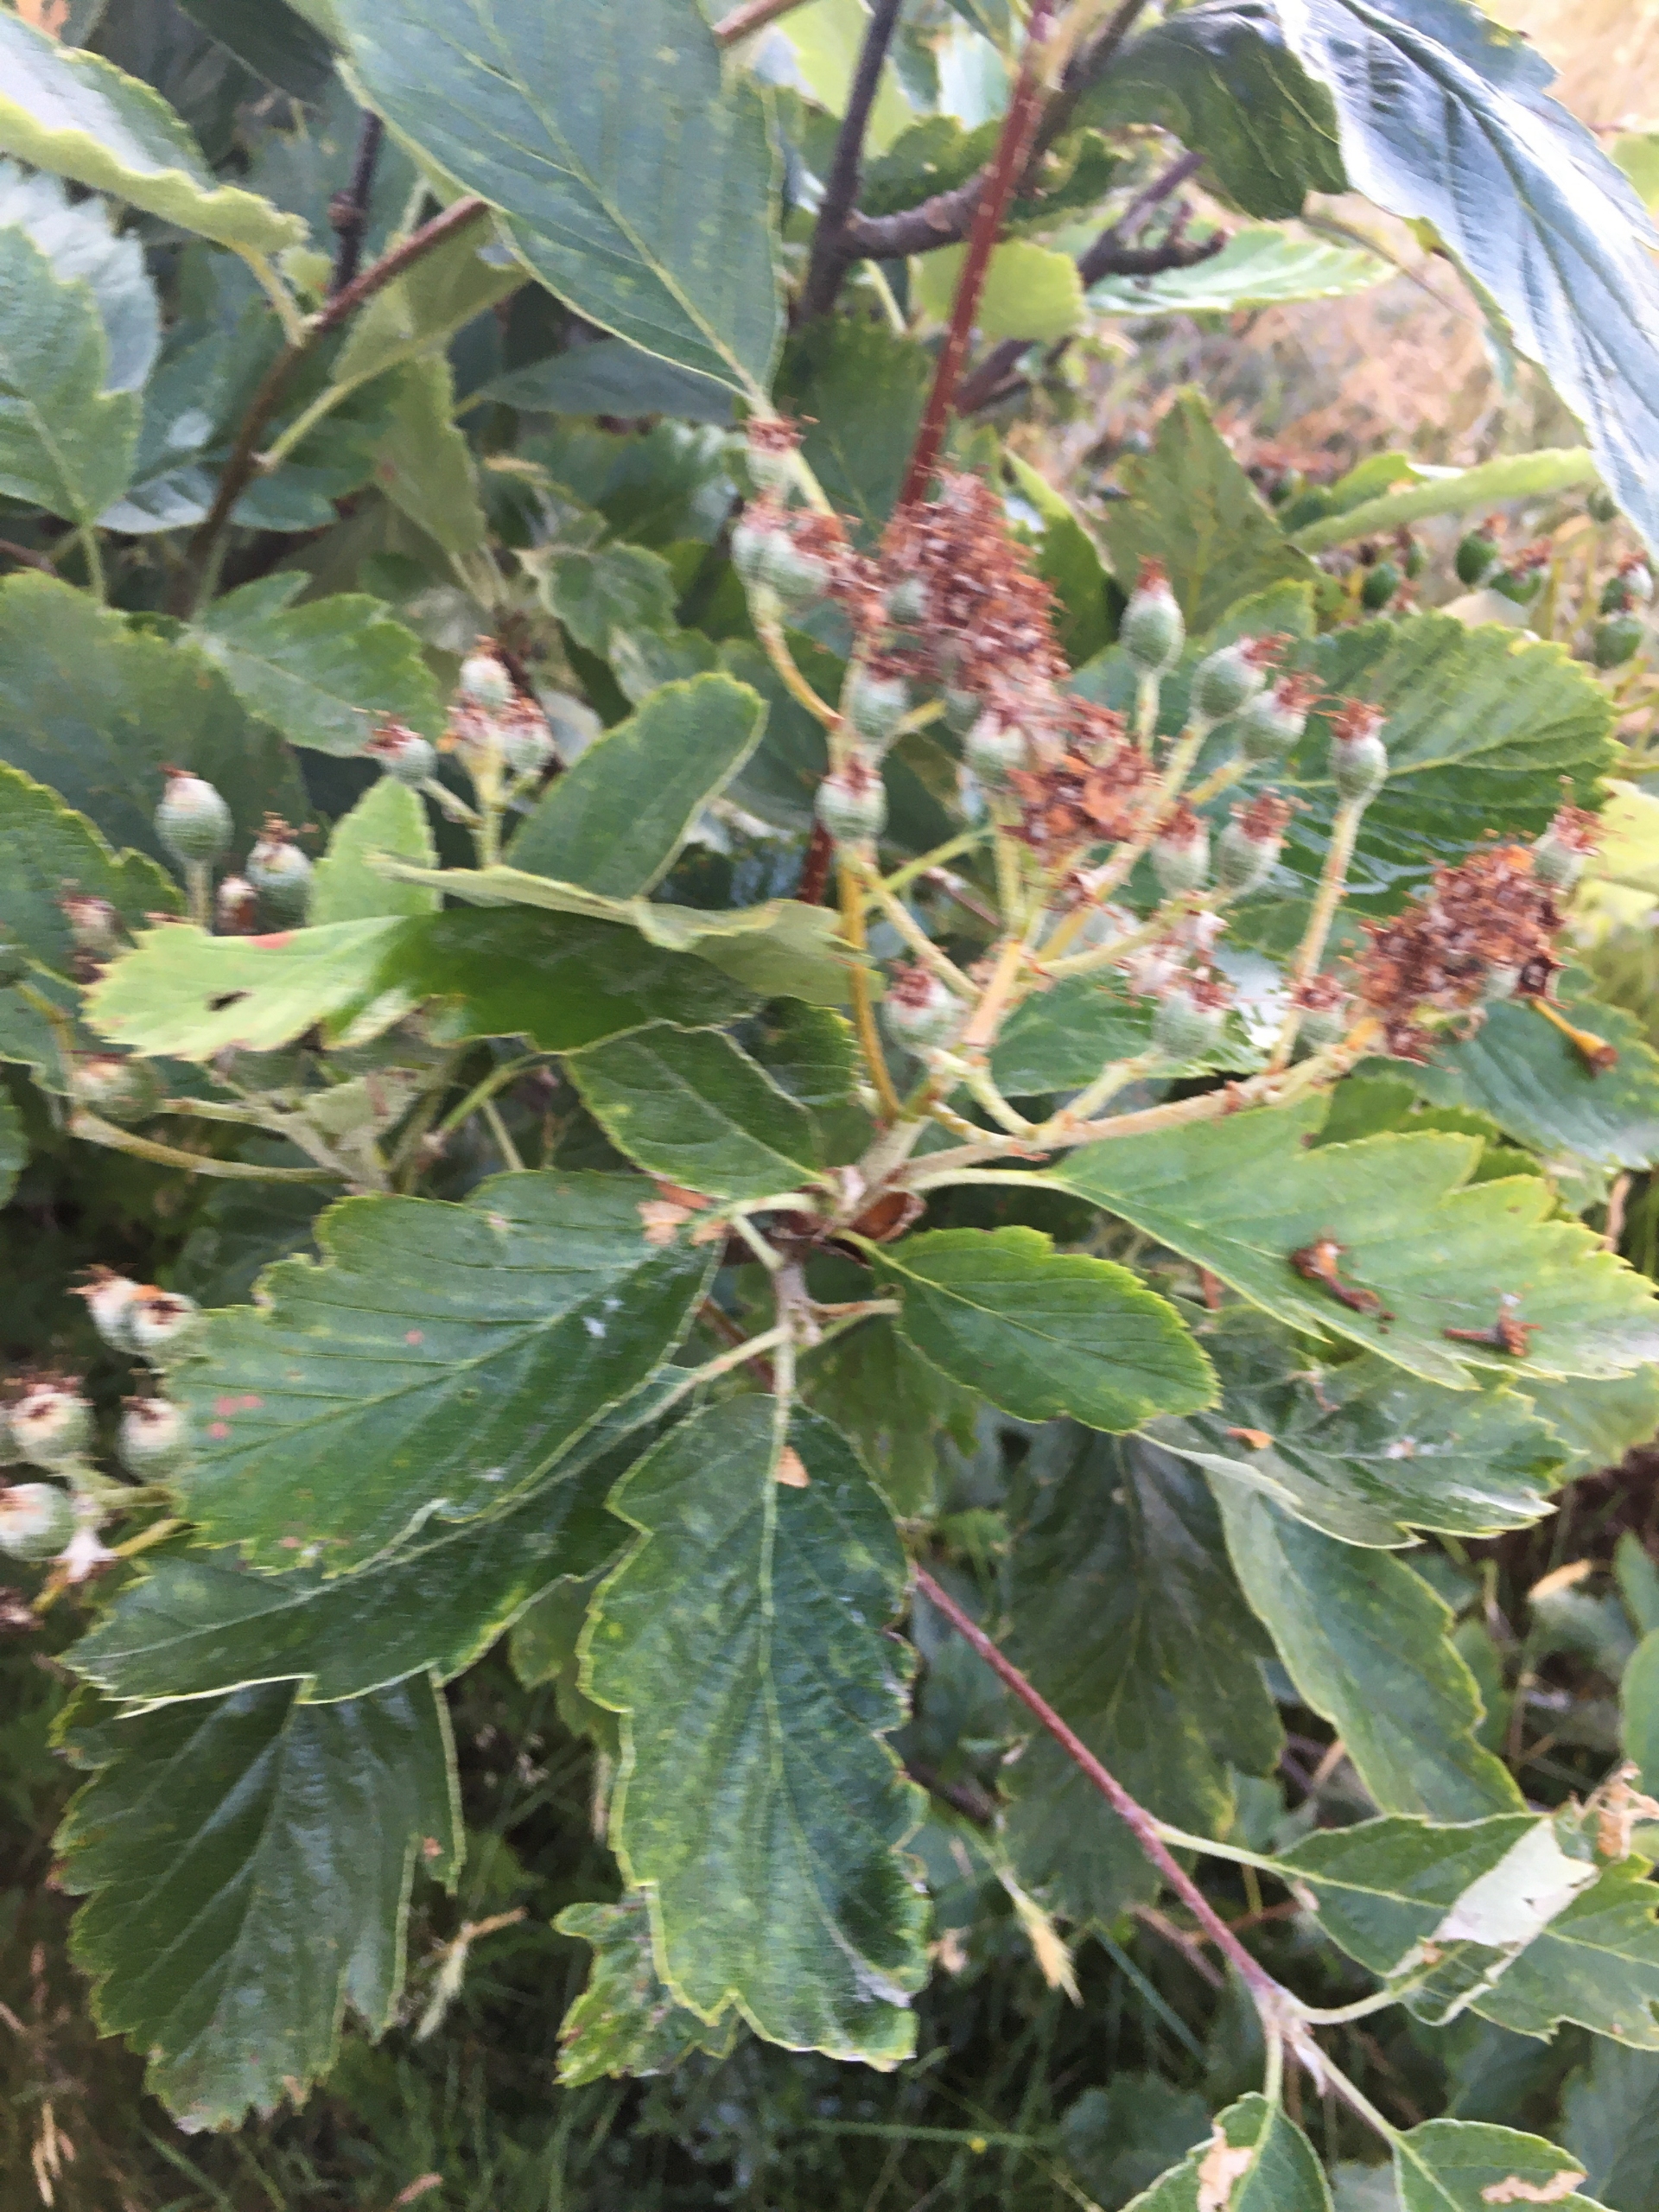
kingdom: Plantae
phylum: Tracheophyta
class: Magnoliopsida
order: Rosales
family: Rosaceae
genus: Scandosorbus
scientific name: Scandosorbus intermedia
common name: Selje-røn
